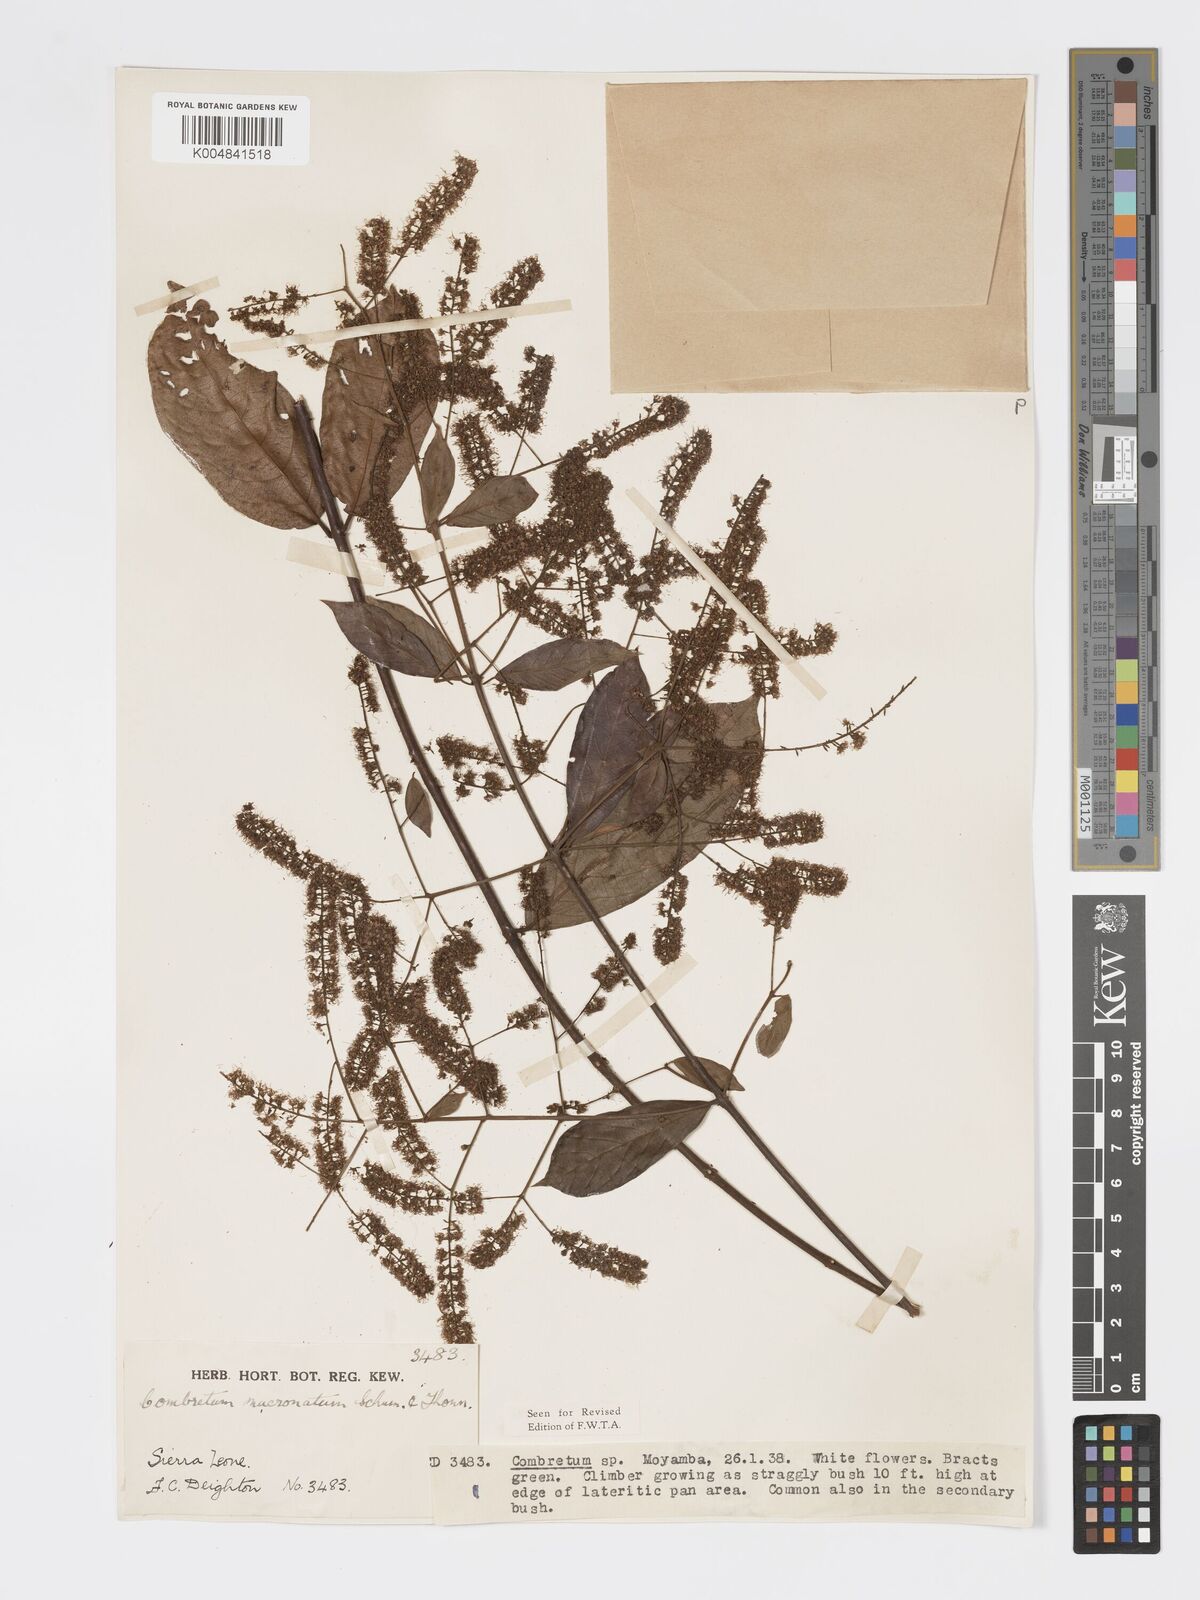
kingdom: Plantae
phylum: Tracheophyta
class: Magnoliopsida
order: Myrtales
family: Combretaceae
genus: Combretum
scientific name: Combretum mucronatum
